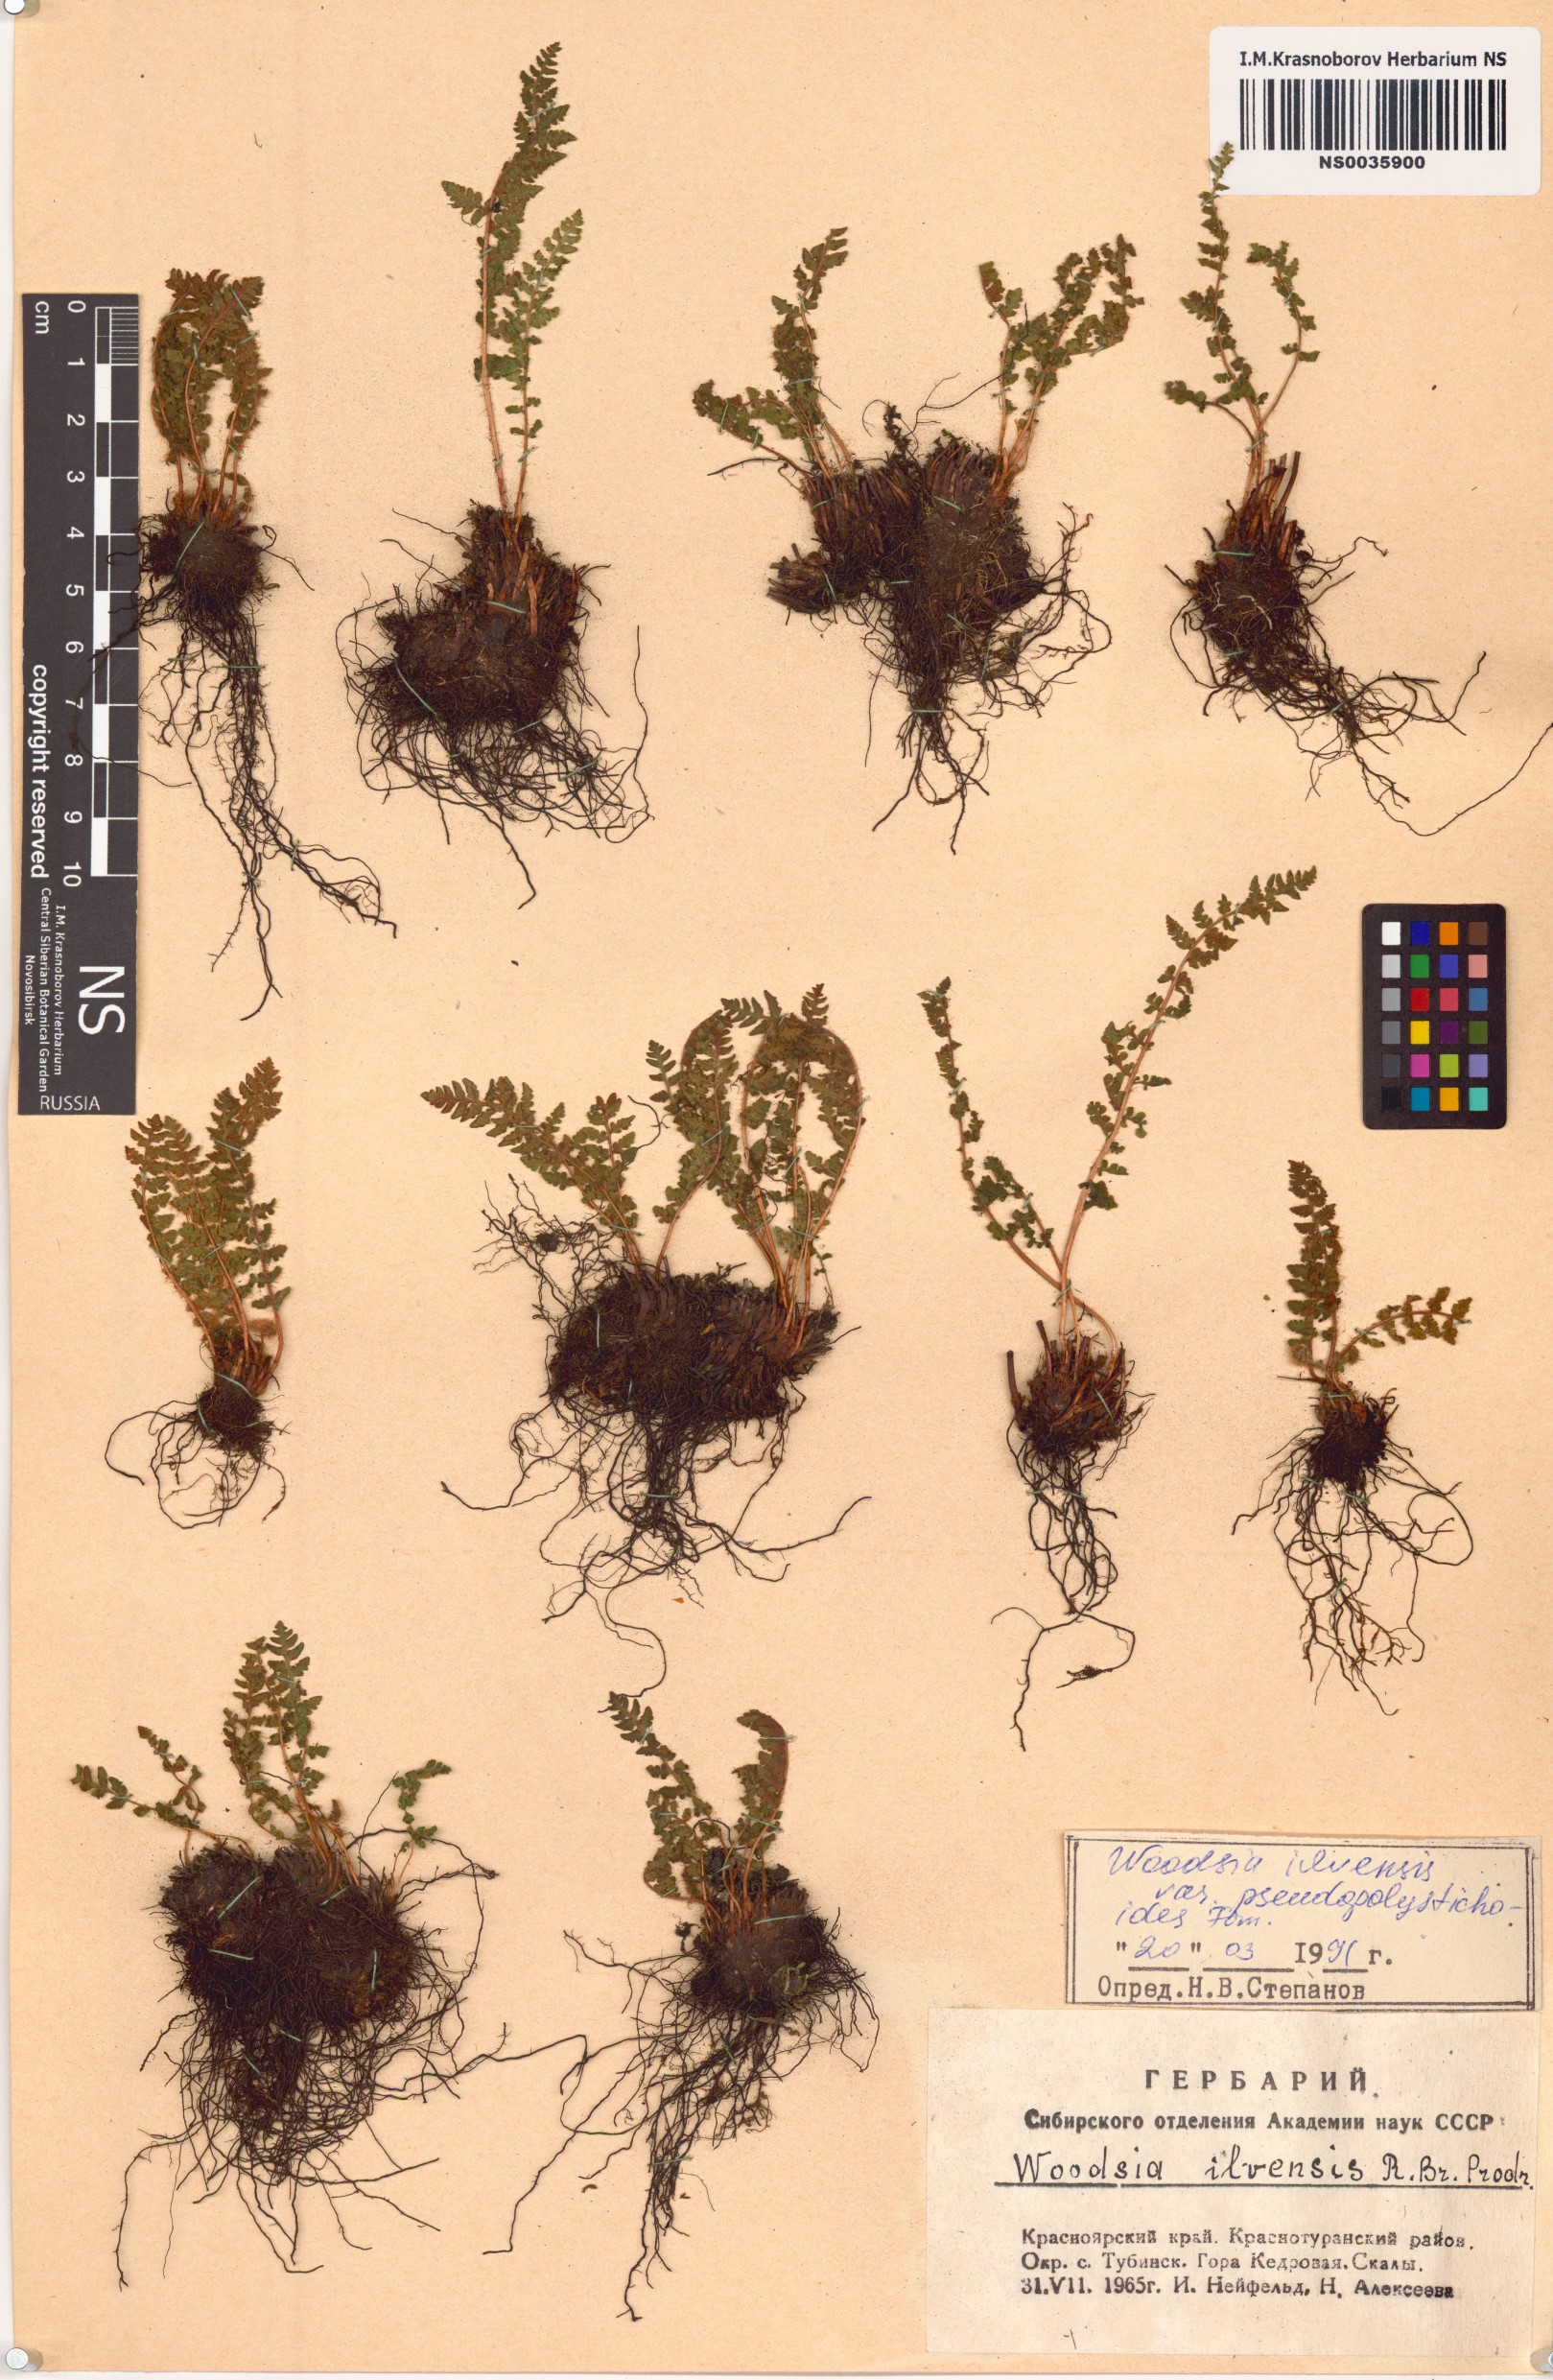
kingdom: Plantae
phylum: Tracheophyta
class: Polypodiopsida
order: Polypodiales
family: Woodsiaceae
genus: Woodsia
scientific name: Woodsia pseudopolystichoides
